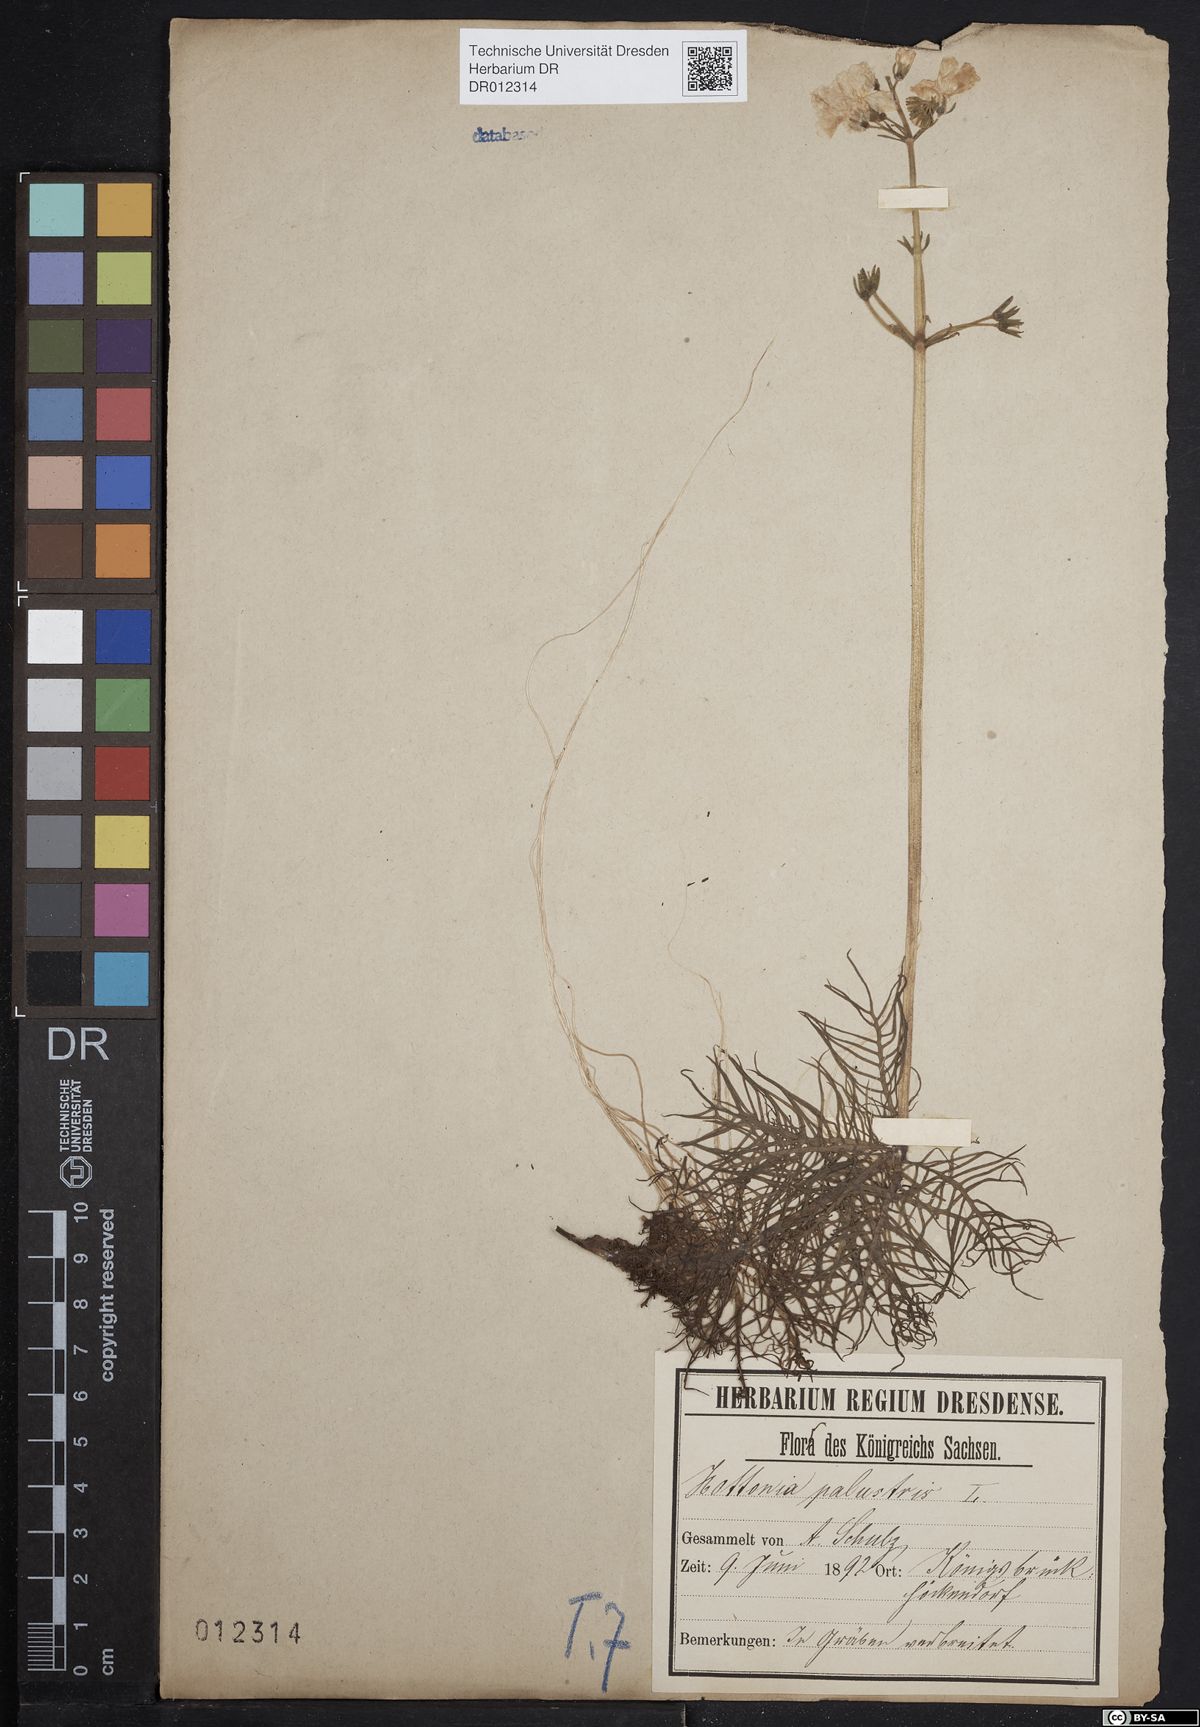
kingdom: Plantae
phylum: Tracheophyta
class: Magnoliopsida
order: Ericales
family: Primulaceae
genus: Hottonia
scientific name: Hottonia palustris
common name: Water-violet
